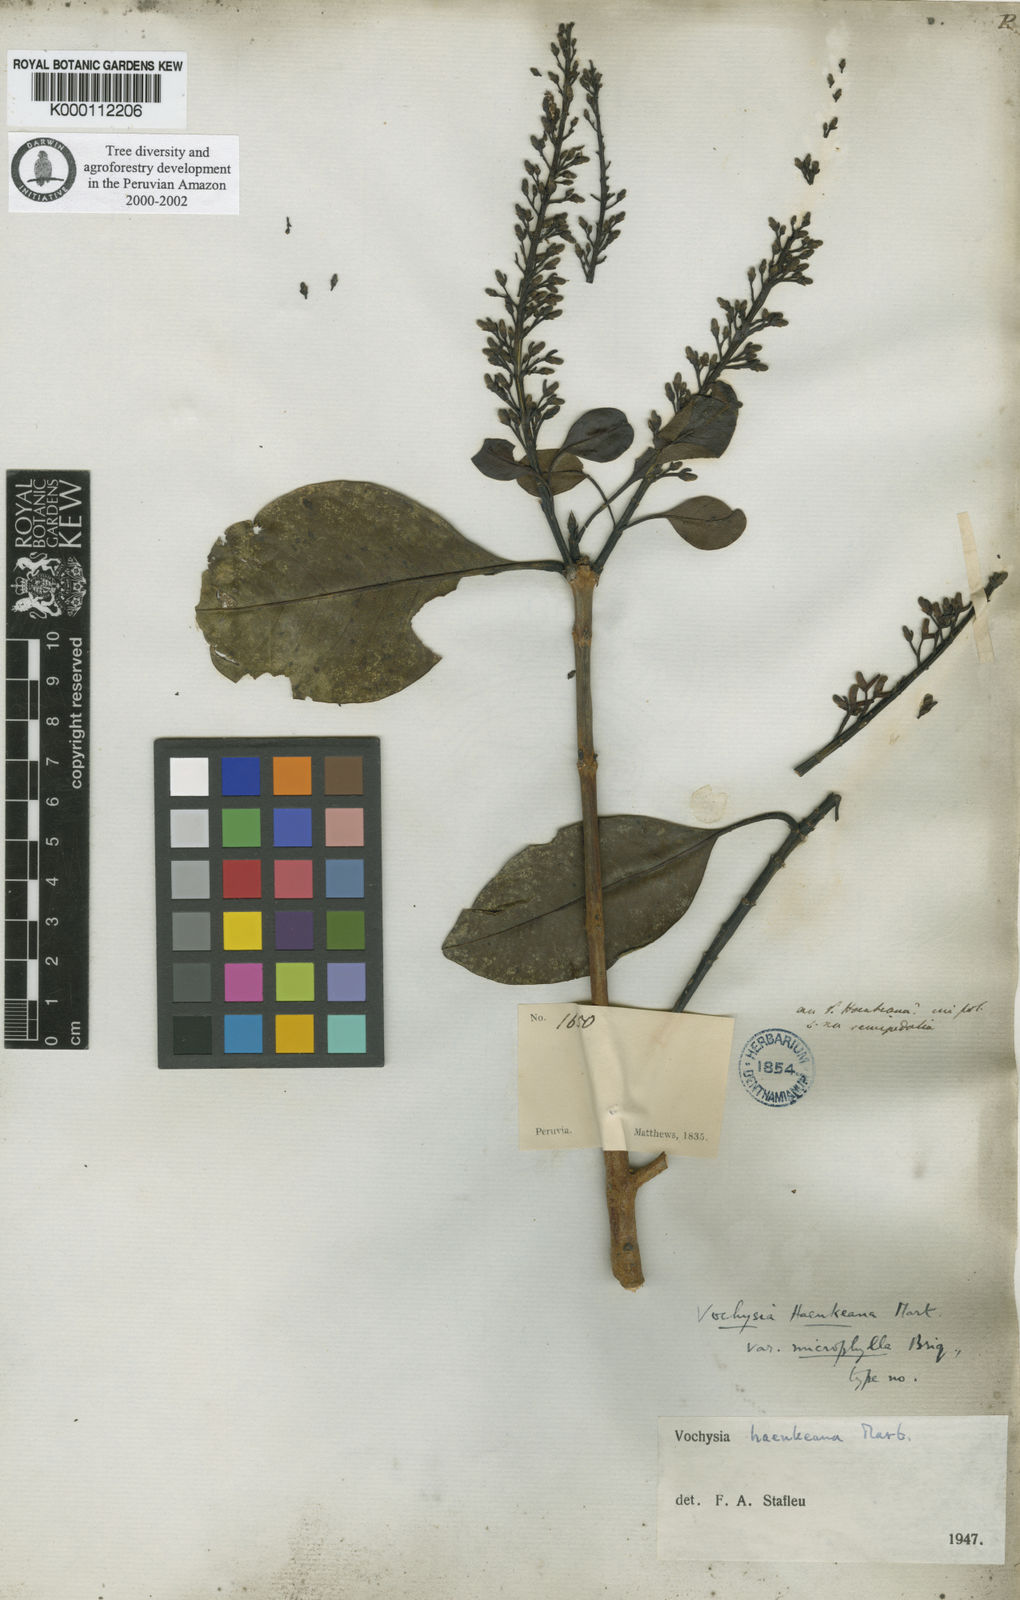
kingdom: Plantae
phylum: Tracheophyta
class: Magnoliopsida
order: Myrtales
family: Vochysiaceae
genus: Vochysia
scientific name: Vochysia haenkeana
